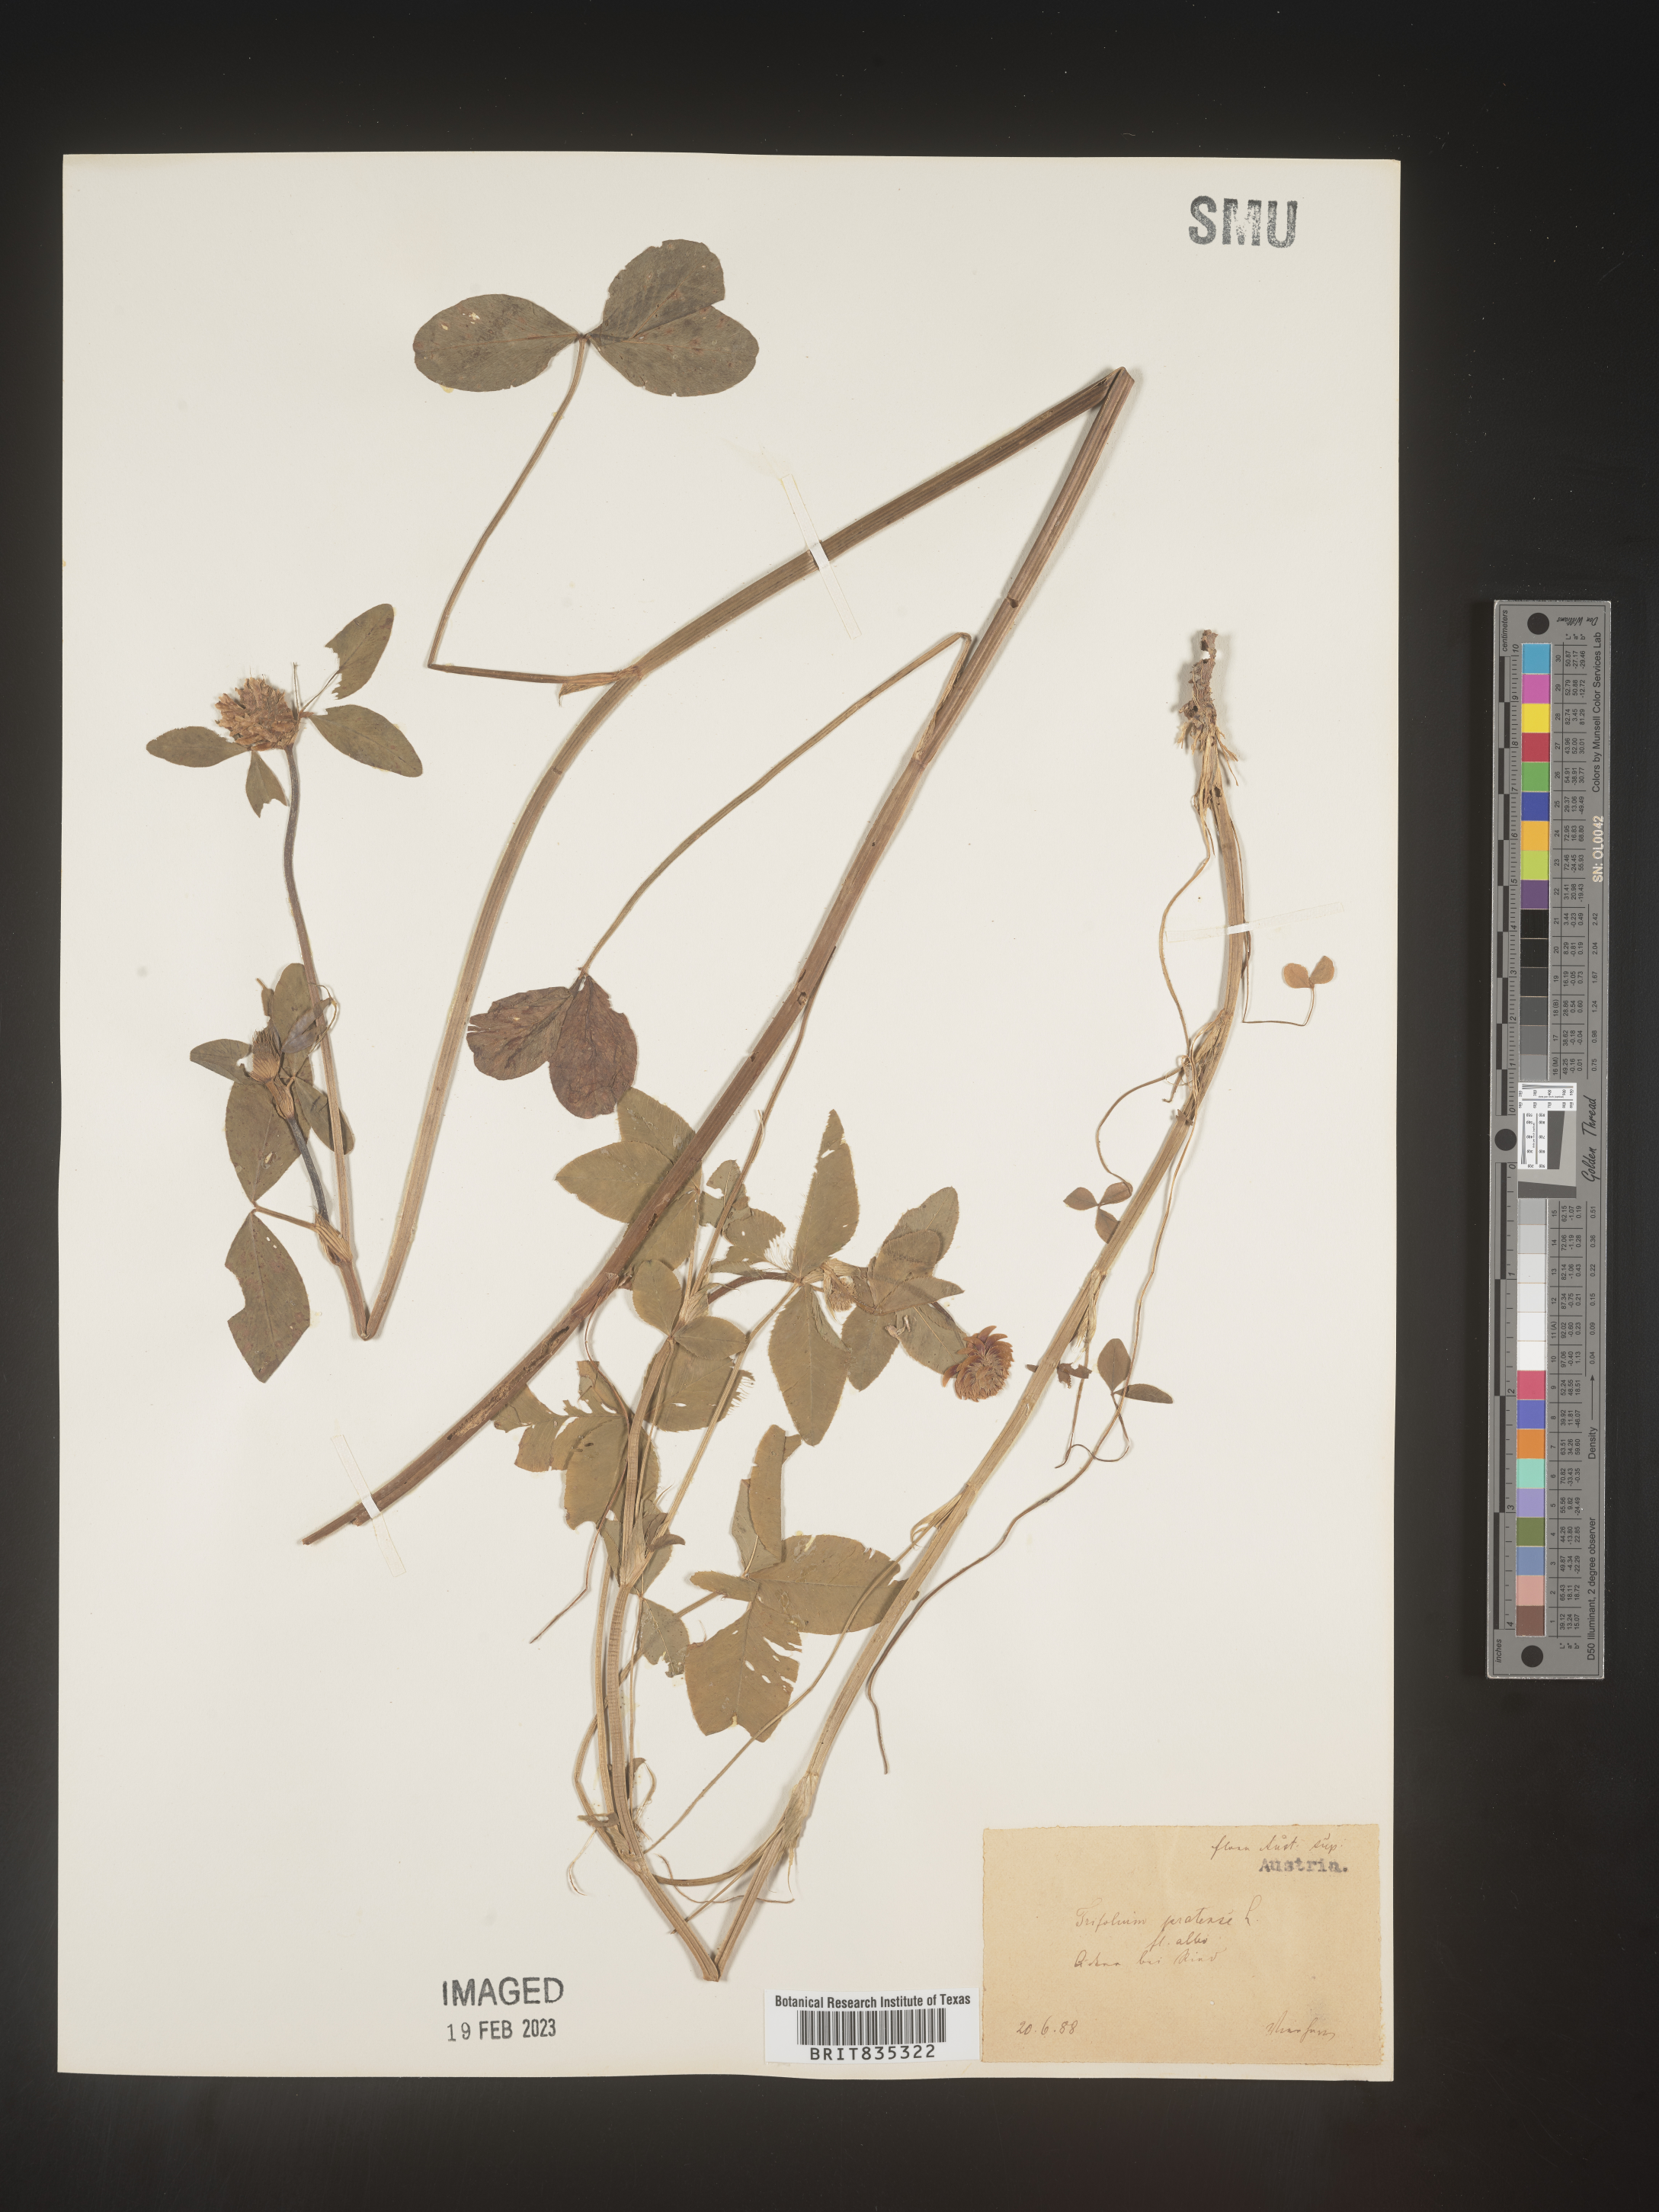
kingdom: Plantae
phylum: Tracheophyta
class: Magnoliopsida
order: Fabales
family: Fabaceae
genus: Trifolium
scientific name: Trifolium
